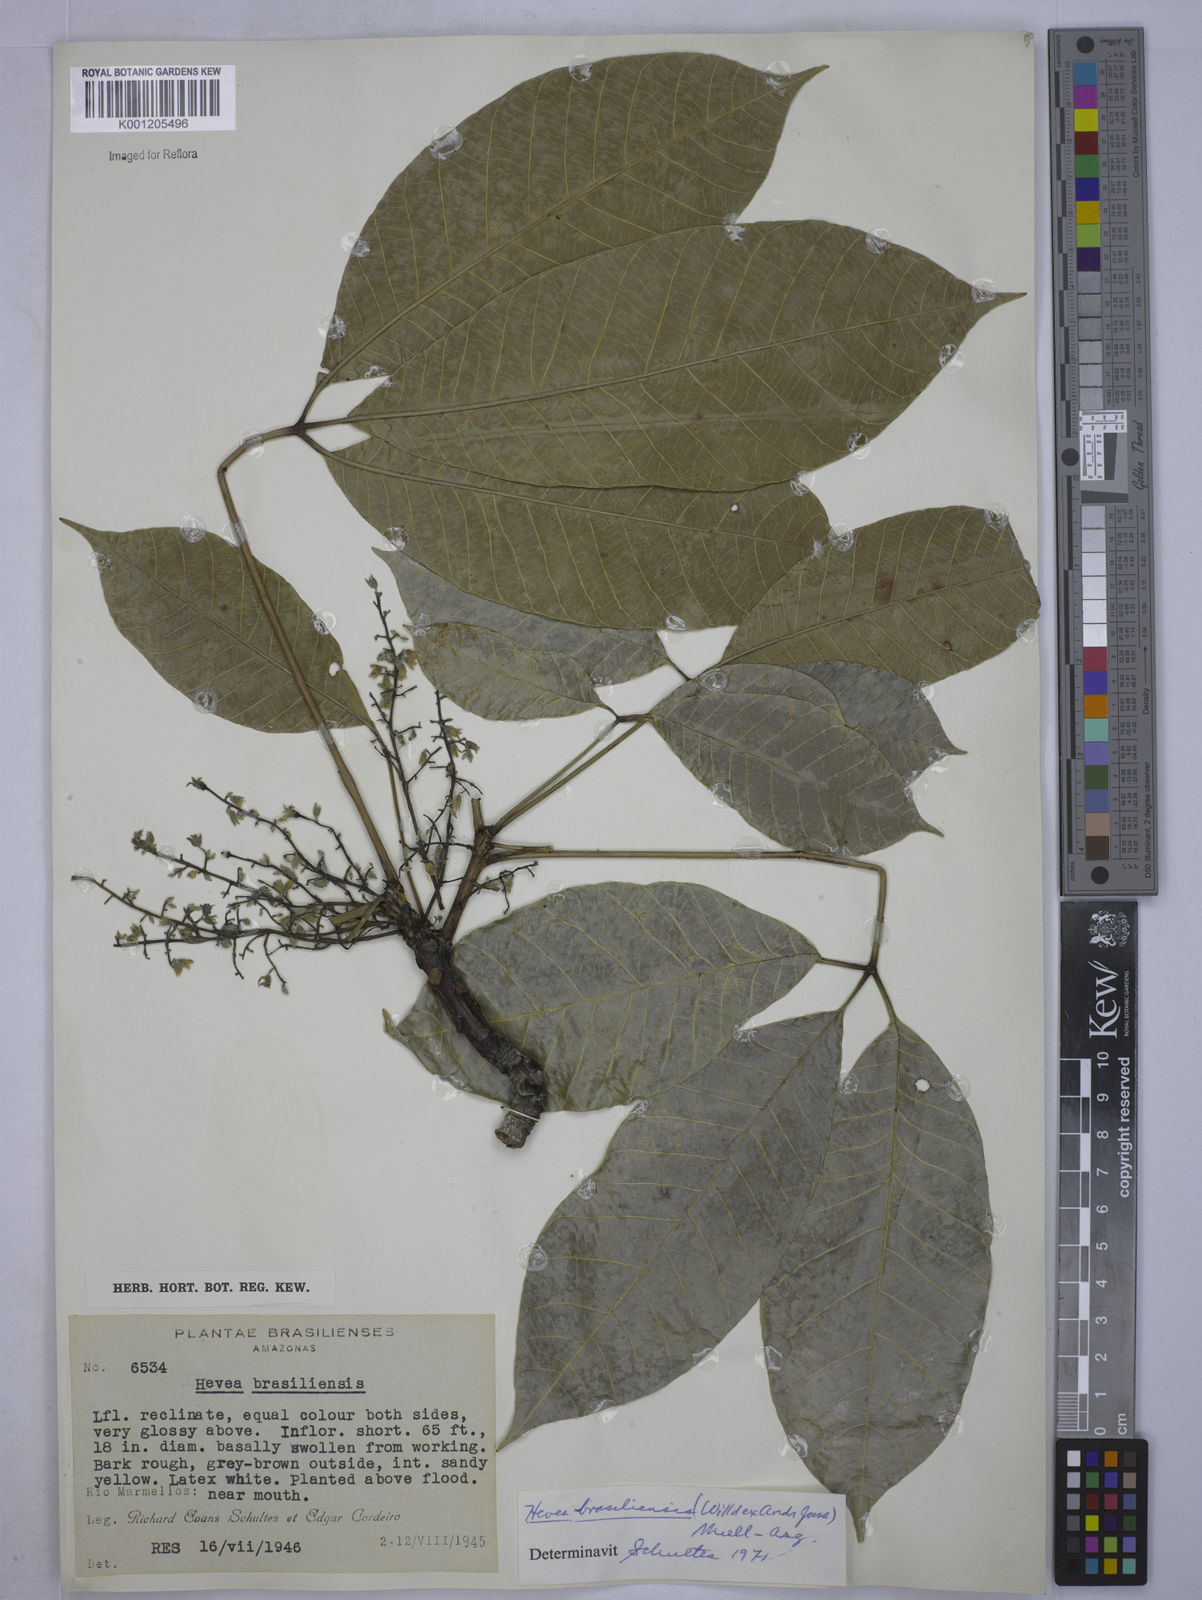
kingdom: Plantae
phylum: Tracheophyta
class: Magnoliopsida
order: Malpighiales
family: Euphorbiaceae
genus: Hevea
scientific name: Hevea
